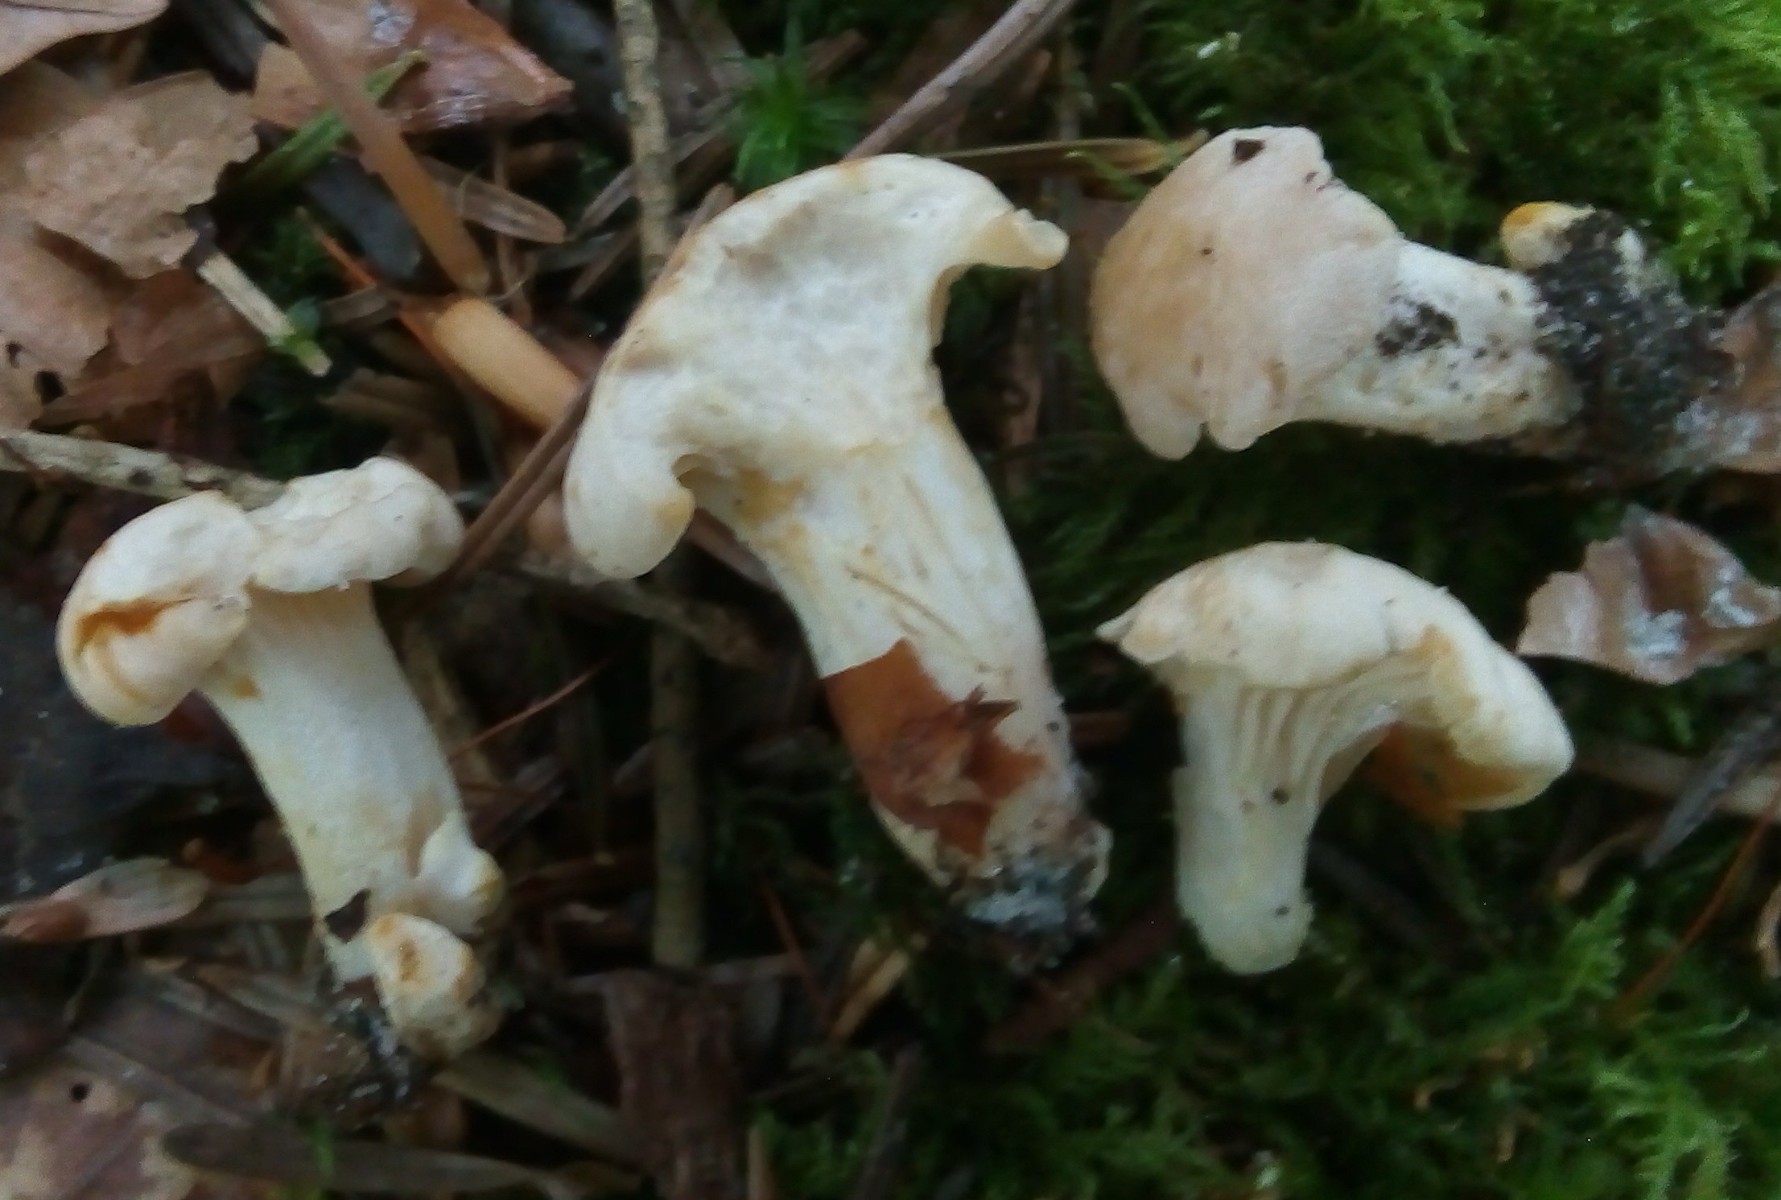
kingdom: Fungi
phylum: Basidiomycota
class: Agaricomycetes
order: Cantharellales
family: Hydnaceae
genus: Cantharellus
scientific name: Cantharellus pallens
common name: bleg kantarel
